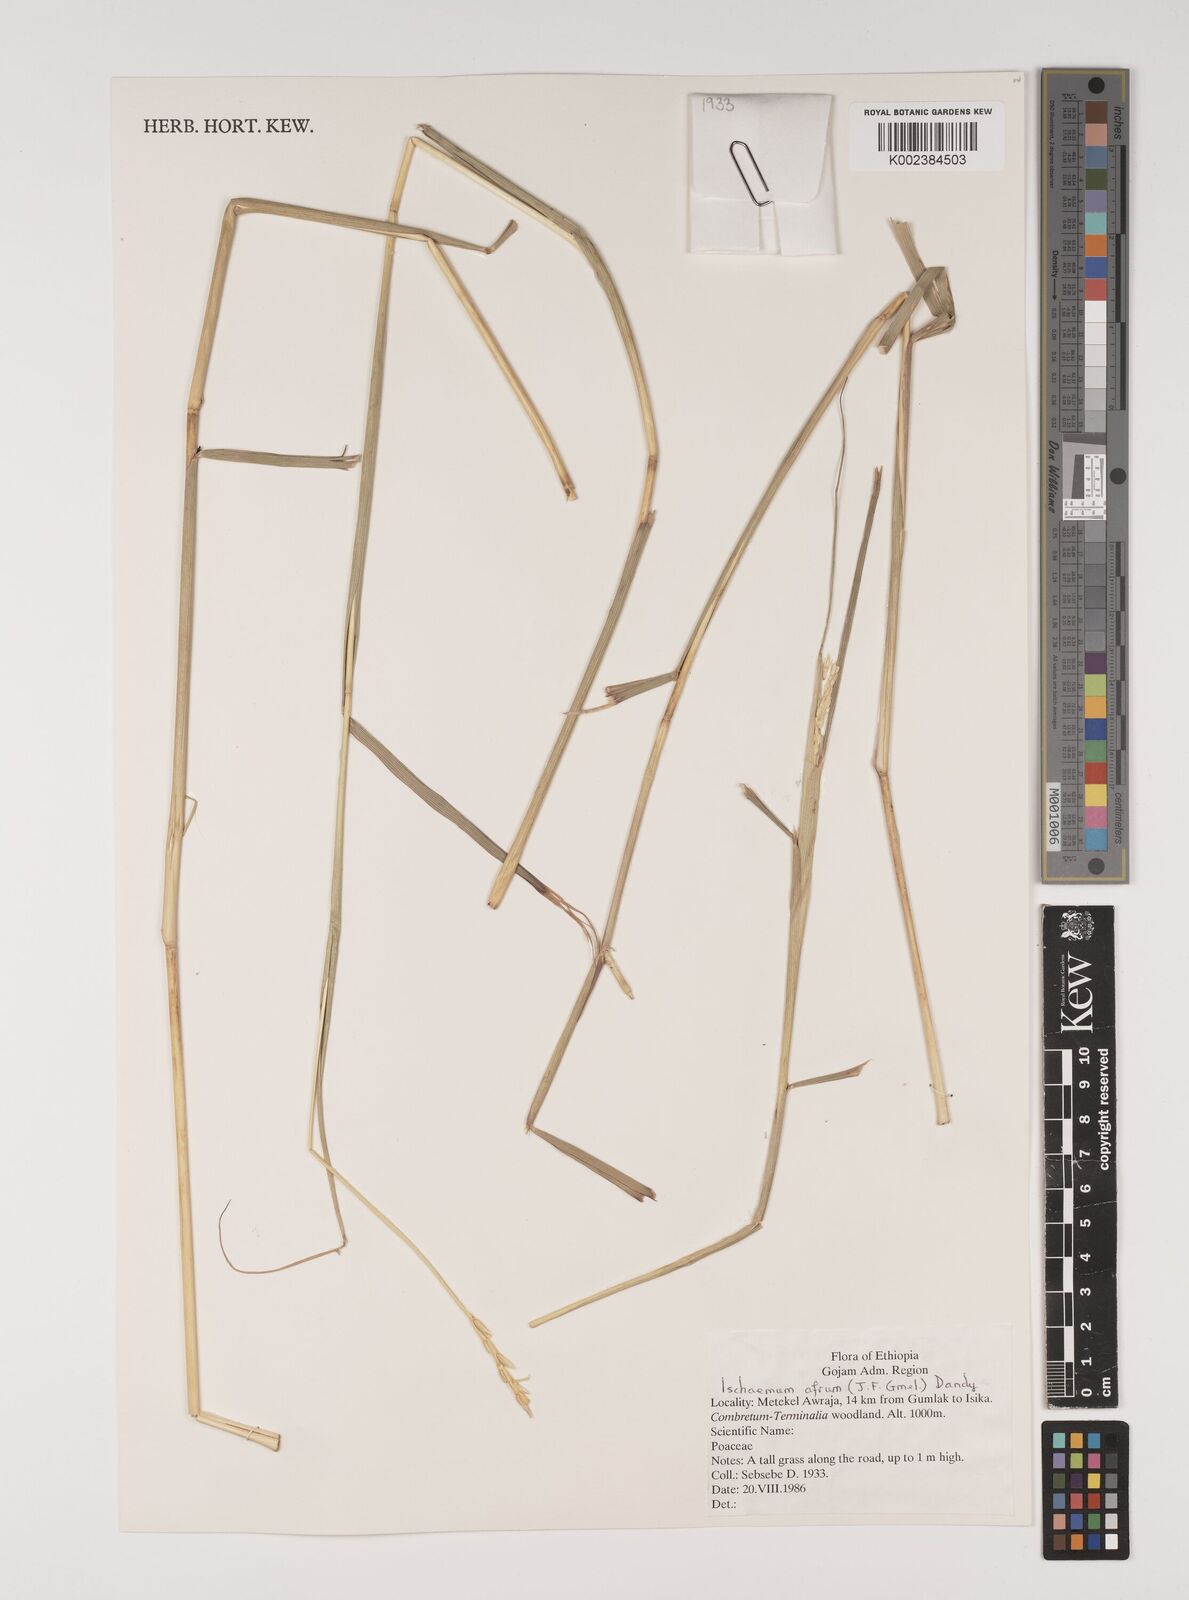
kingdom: Plantae
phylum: Tracheophyta
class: Liliopsida
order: Poales
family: Poaceae
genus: Ischaemum
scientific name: Ischaemum afrum
